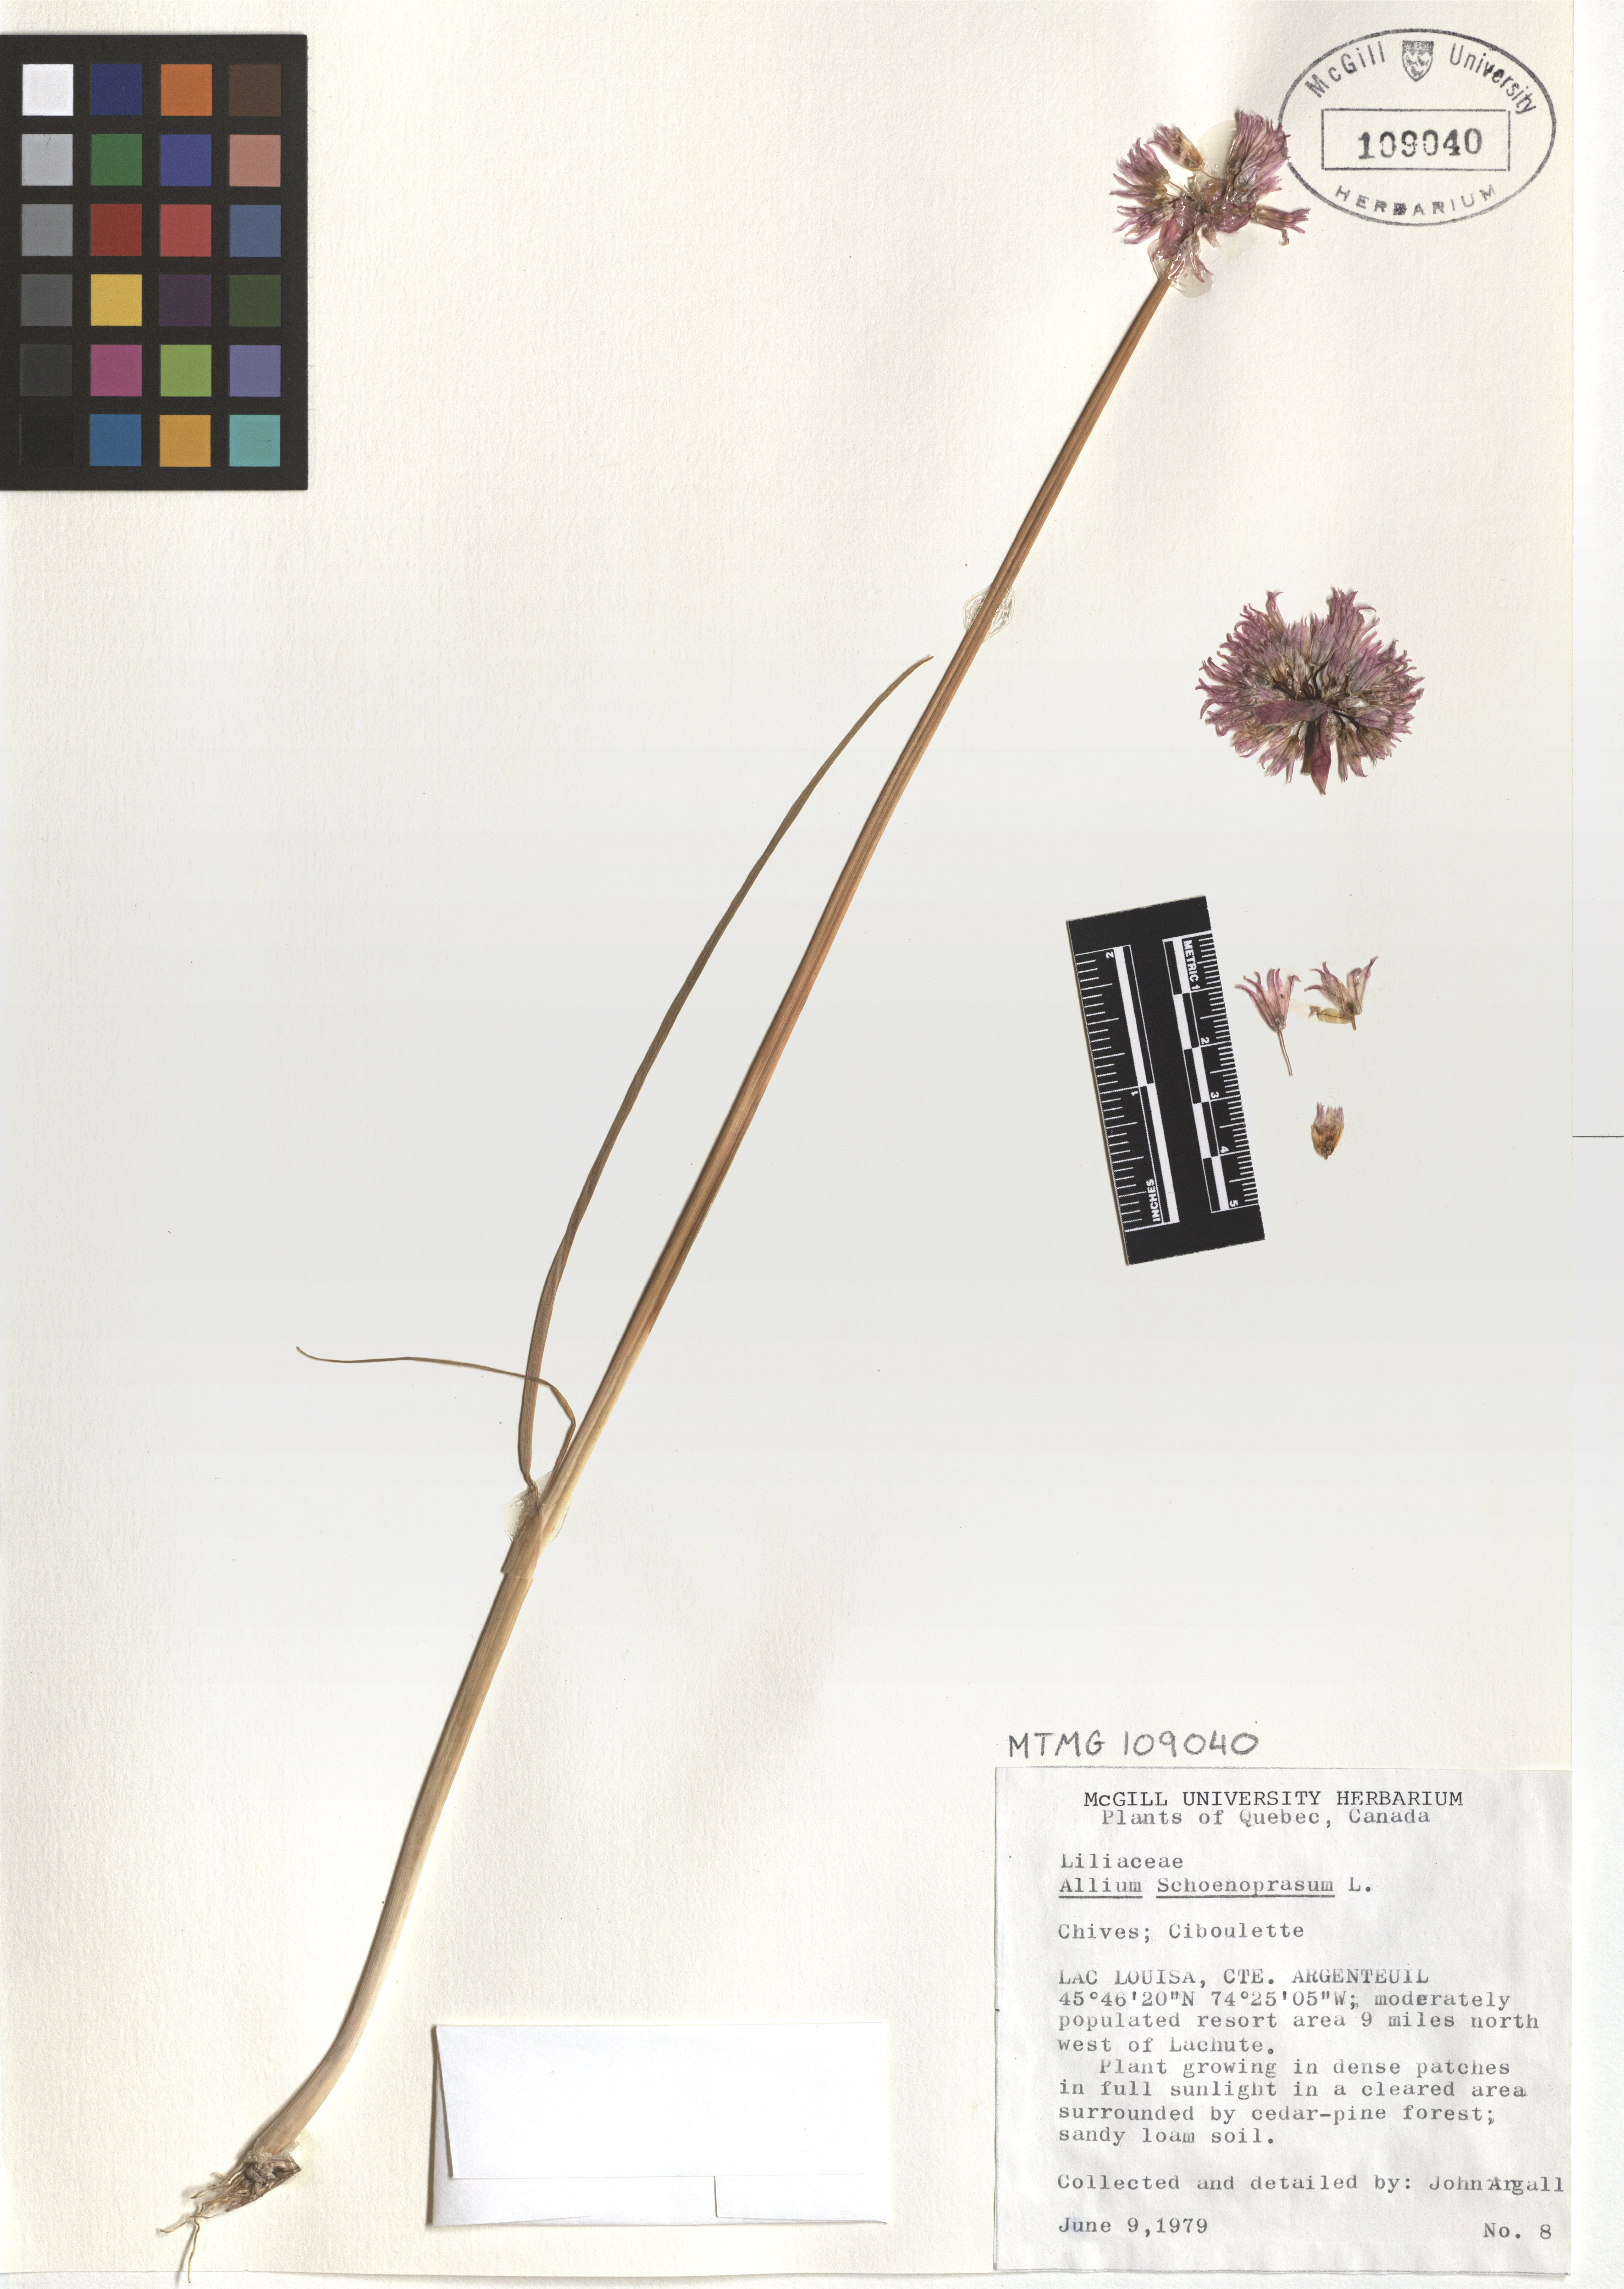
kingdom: Plantae
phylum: Tracheophyta
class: Liliopsida
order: Asparagales
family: Amaryllidaceae
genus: Allium
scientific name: Allium schoenoprasum
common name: Chives
